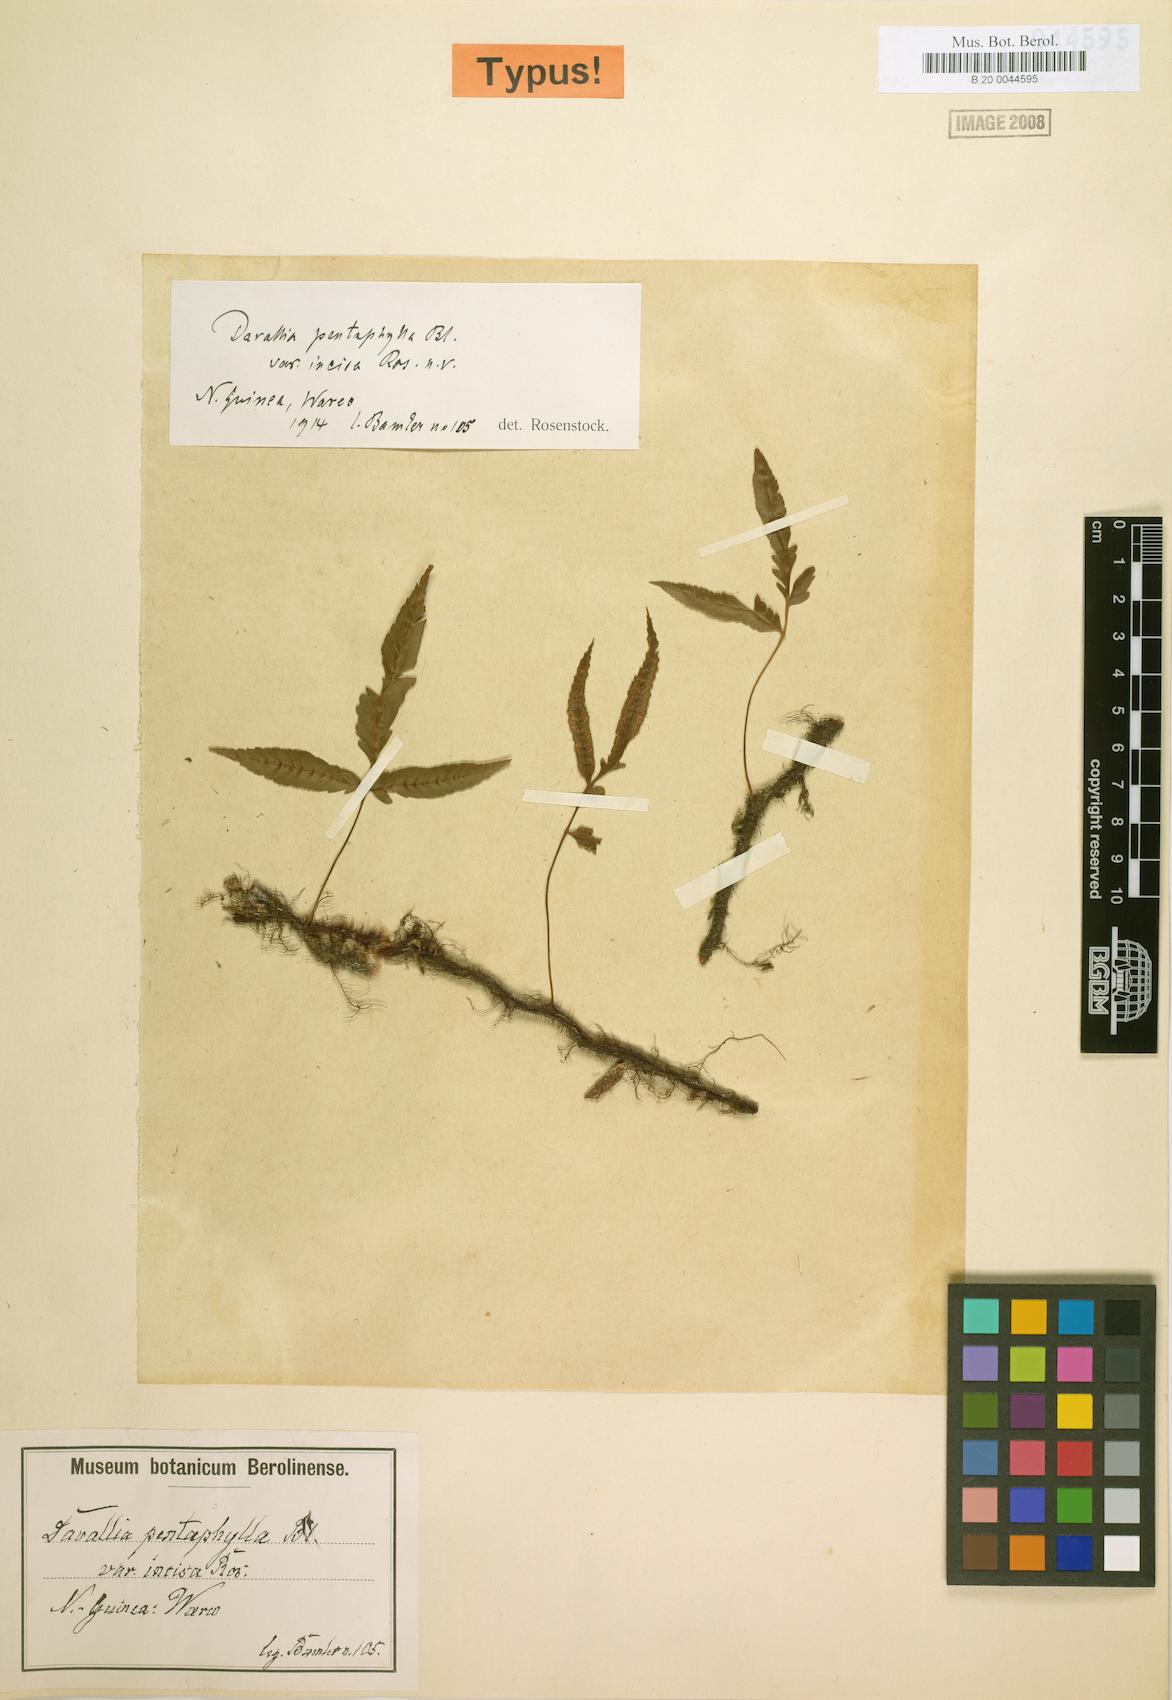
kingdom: Plantae
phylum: Tracheophyta
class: Polypodiopsida
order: Polypodiales
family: Davalliaceae
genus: Davallia
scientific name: Davallia pentaphylla
